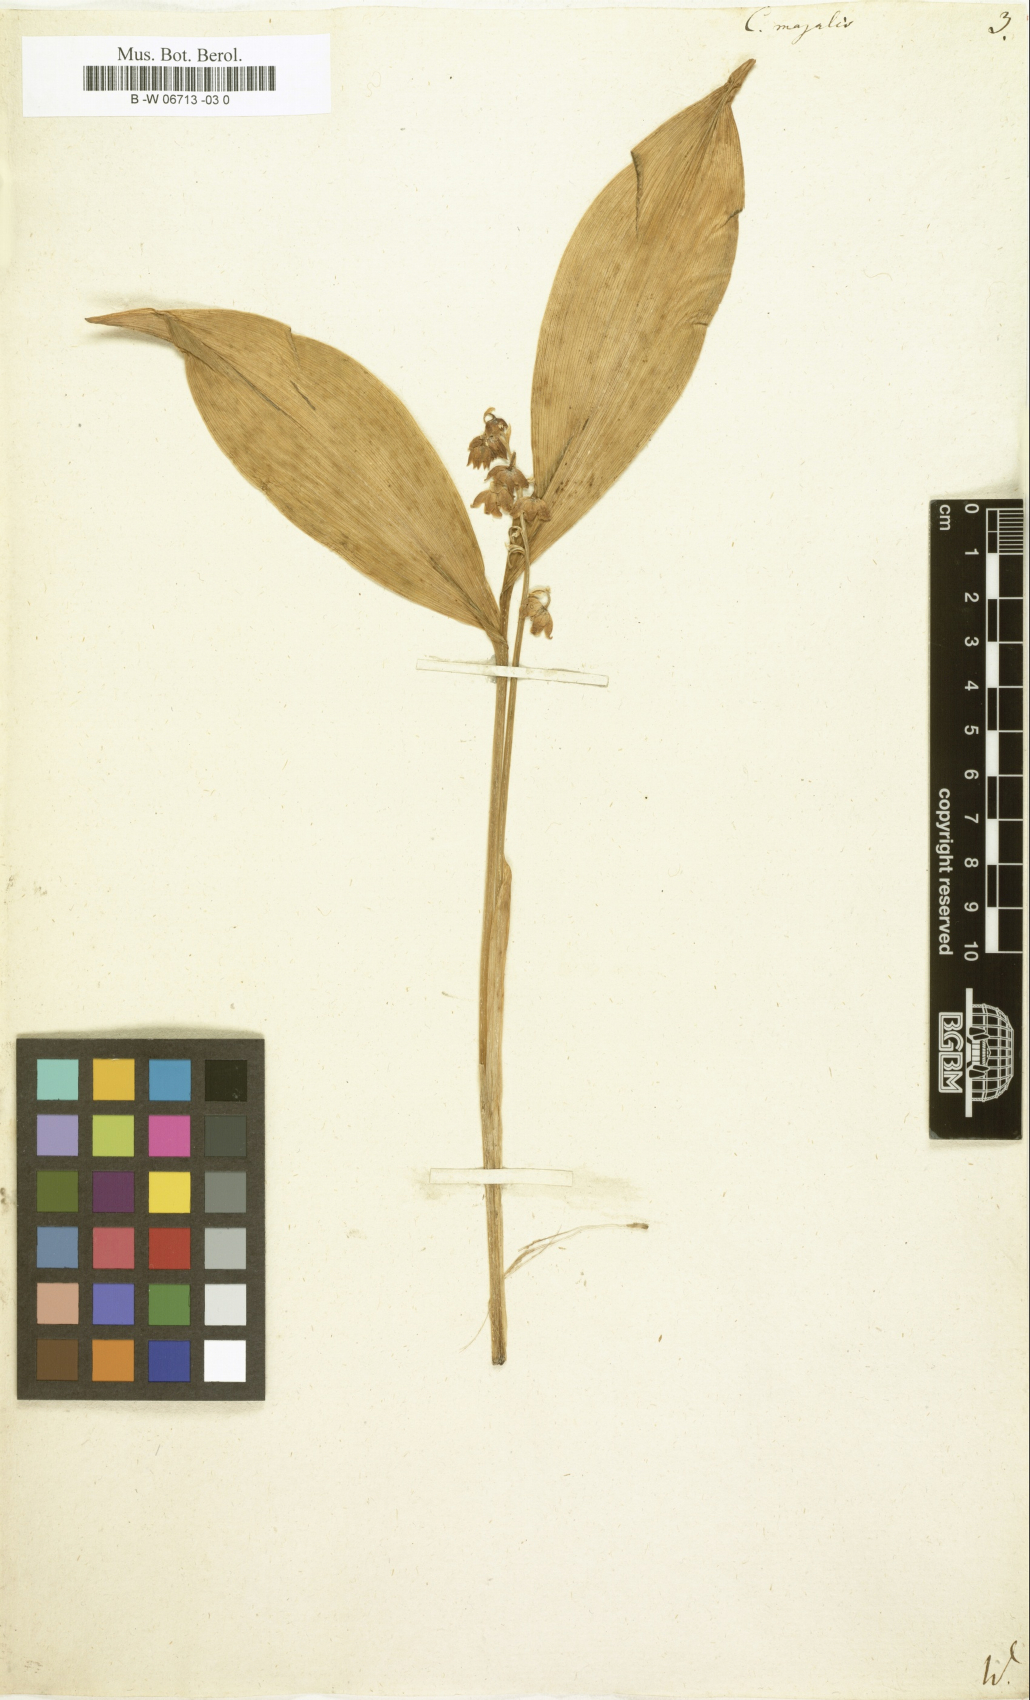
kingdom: Plantae
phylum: Tracheophyta
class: Liliopsida
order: Asparagales
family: Asparagaceae
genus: Convallaria
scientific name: Convallaria majalis
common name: Lily-of-the-valley
